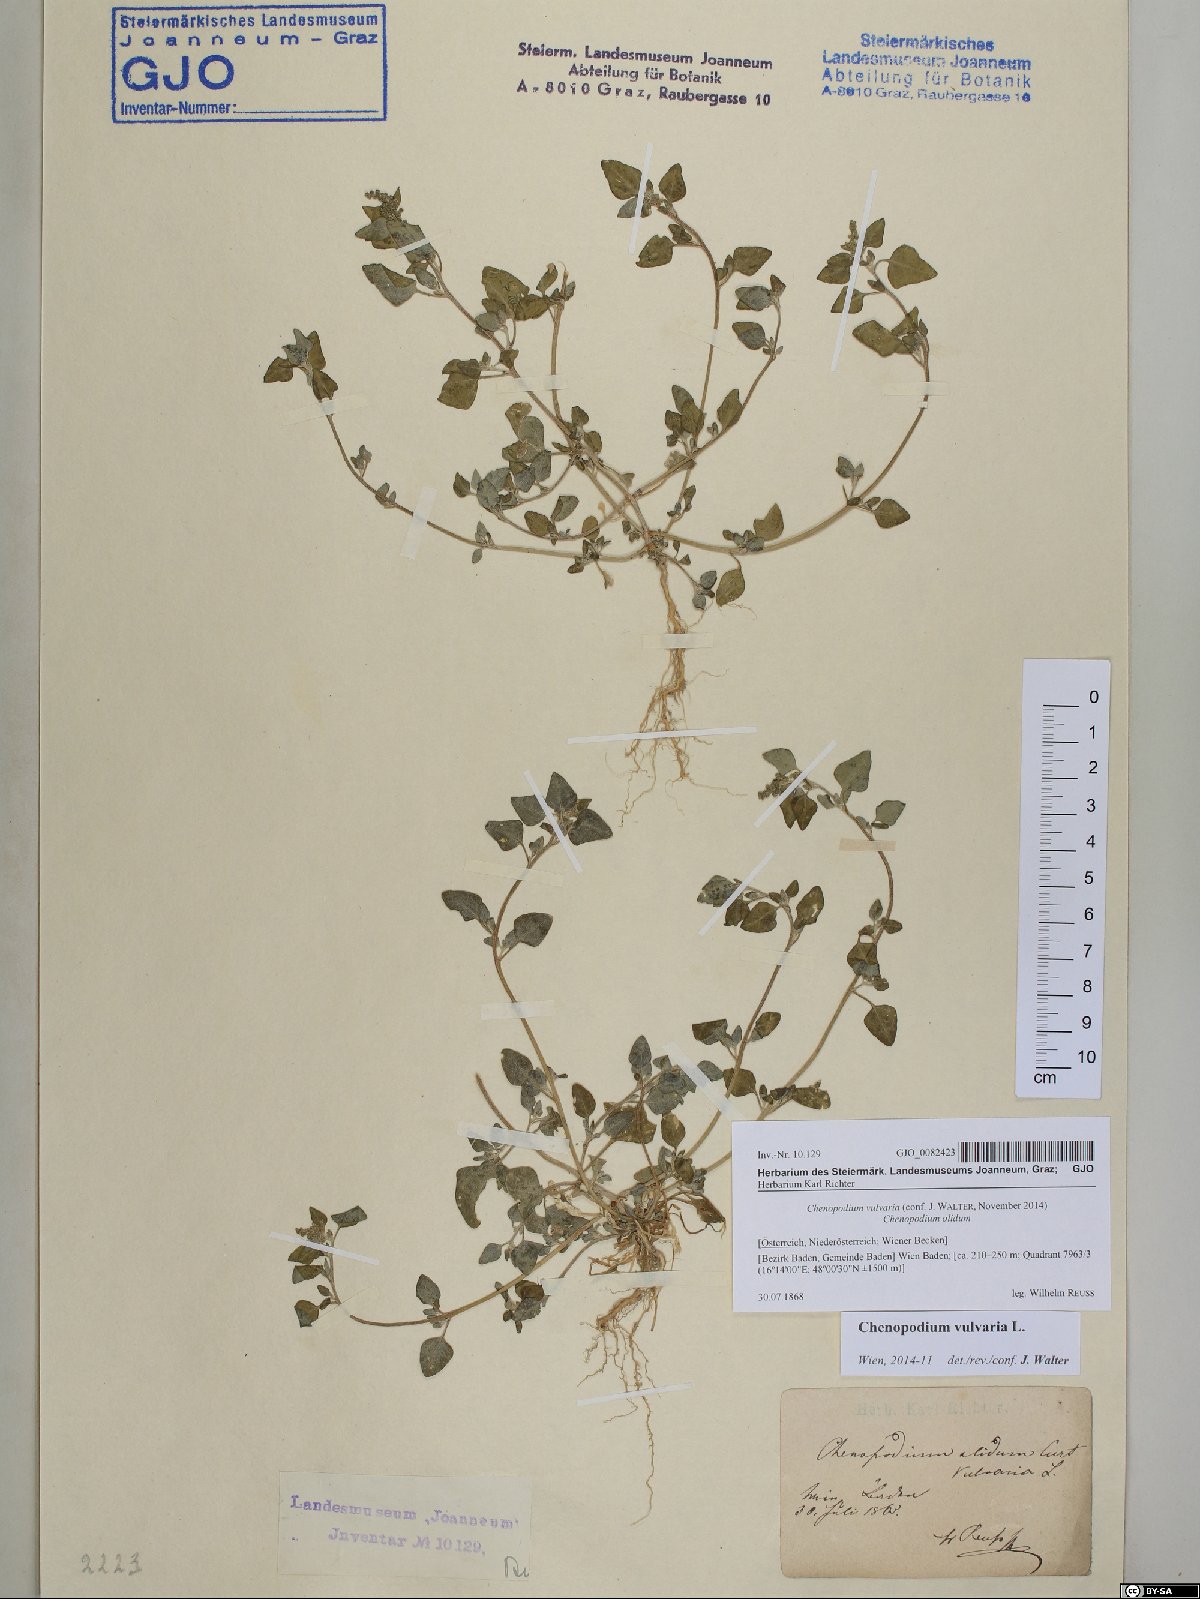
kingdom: Plantae
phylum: Tracheophyta
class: Magnoliopsida
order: Caryophyllales
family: Amaranthaceae
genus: Chenopodium
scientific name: Chenopodium vulvaria
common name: Stinking goosefoot
